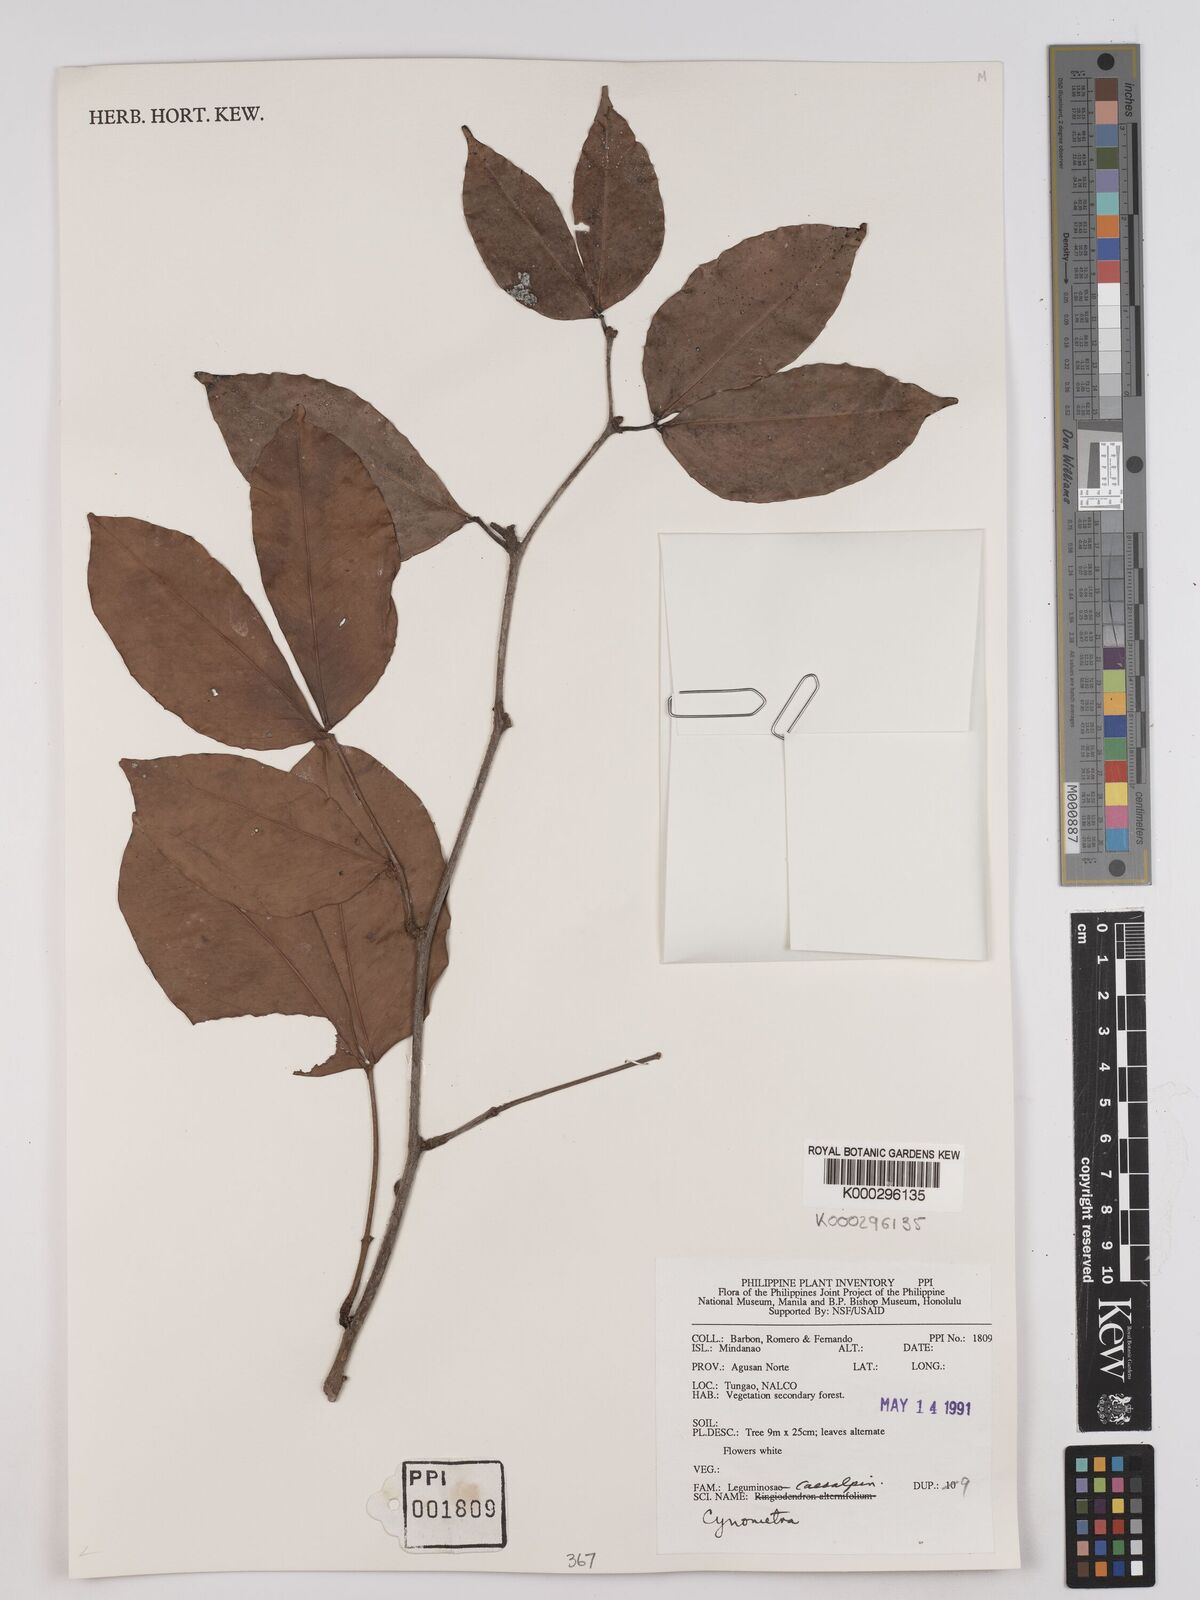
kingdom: Plantae
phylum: Tracheophyta
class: Magnoliopsida
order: Fabales
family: Fabaceae
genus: Cynometra
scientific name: Cynometra
